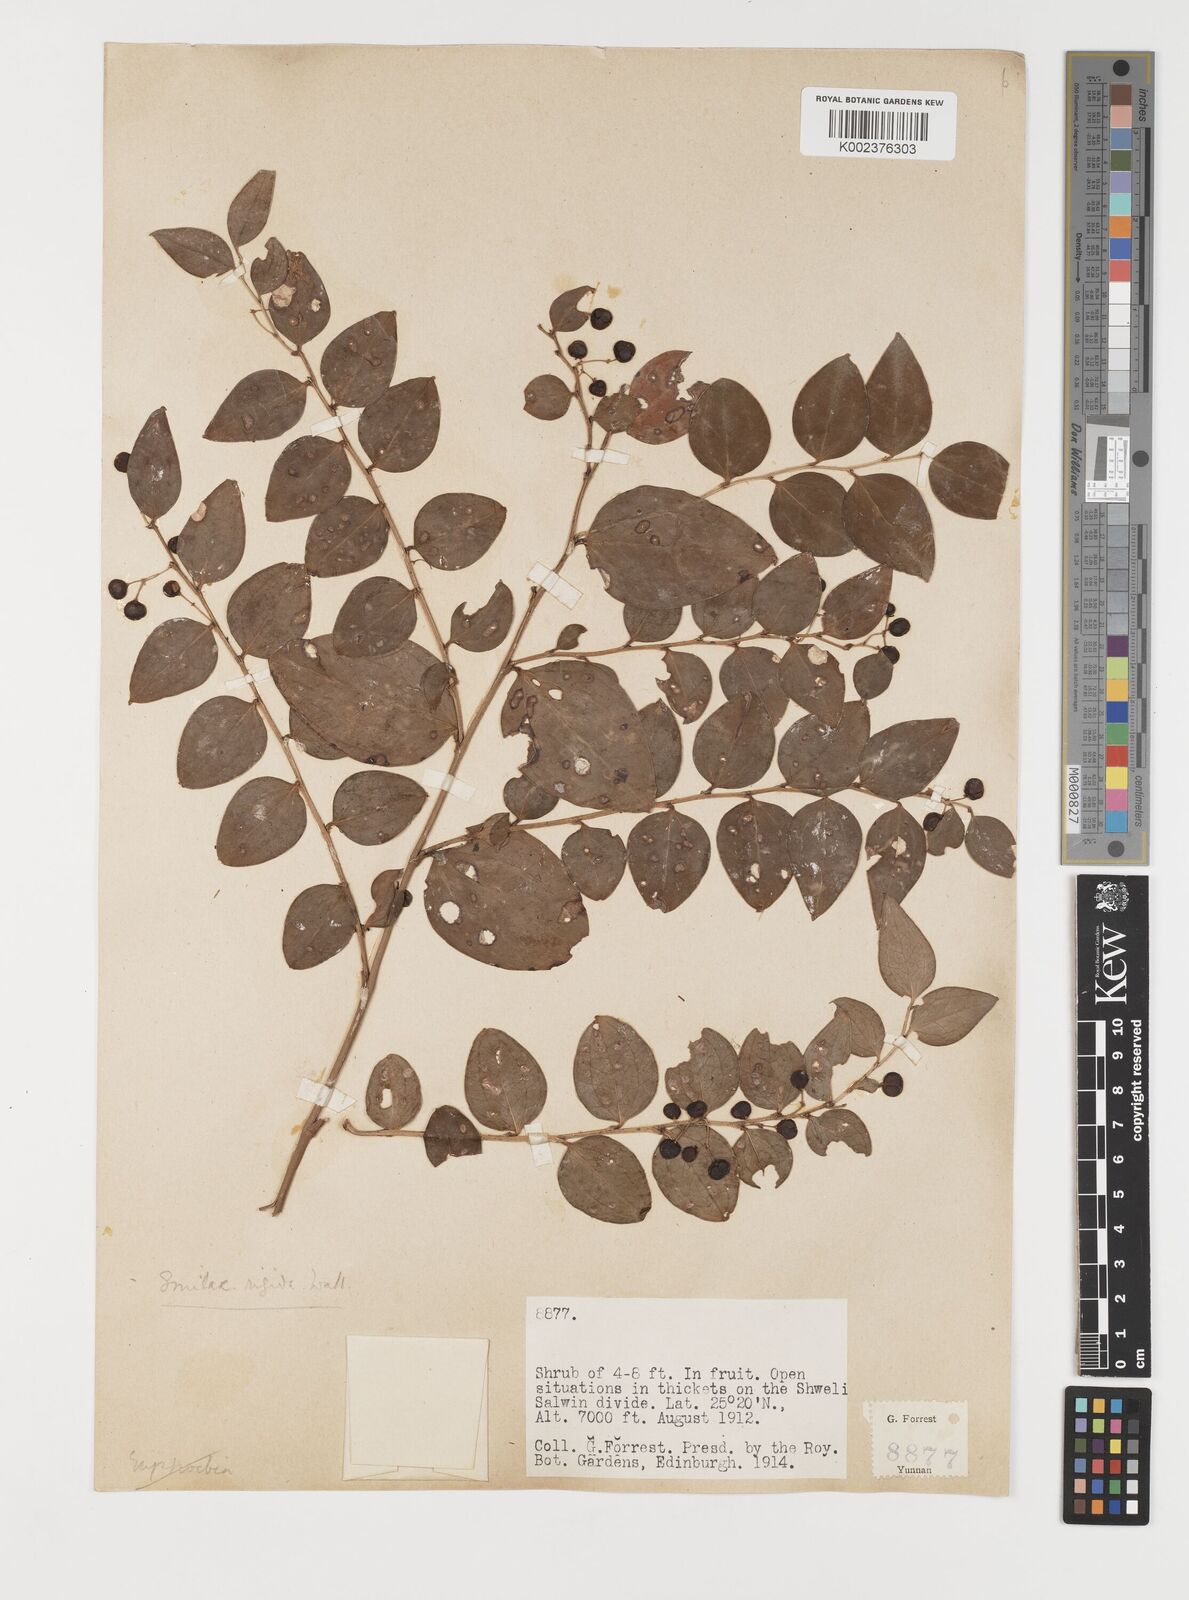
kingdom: Plantae
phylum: Tracheophyta
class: Liliopsida
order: Liliales
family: Smilacaceae
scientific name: Smilacaceae
